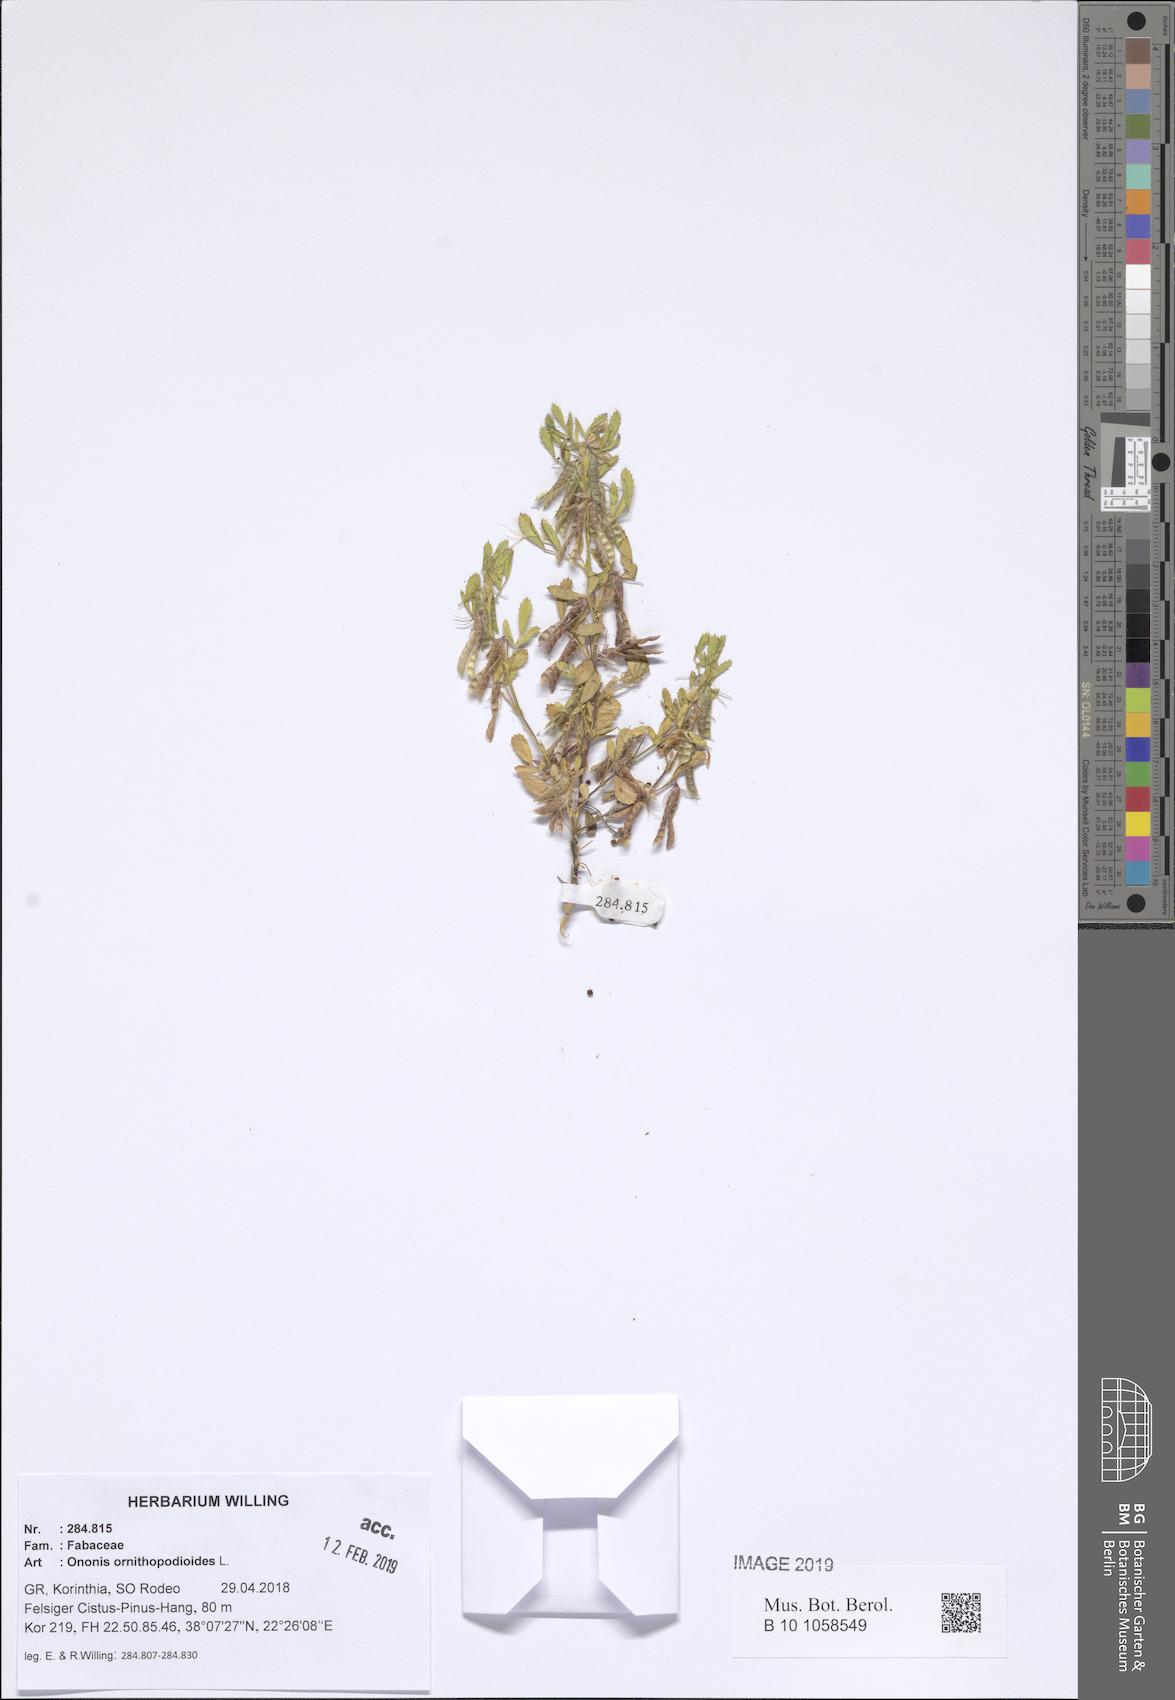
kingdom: Plantae
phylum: Tracheophyta
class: Magnoliopsida
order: Fabales
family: Fabaceae
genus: Ononis
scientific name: Ononis ornithopodioides
